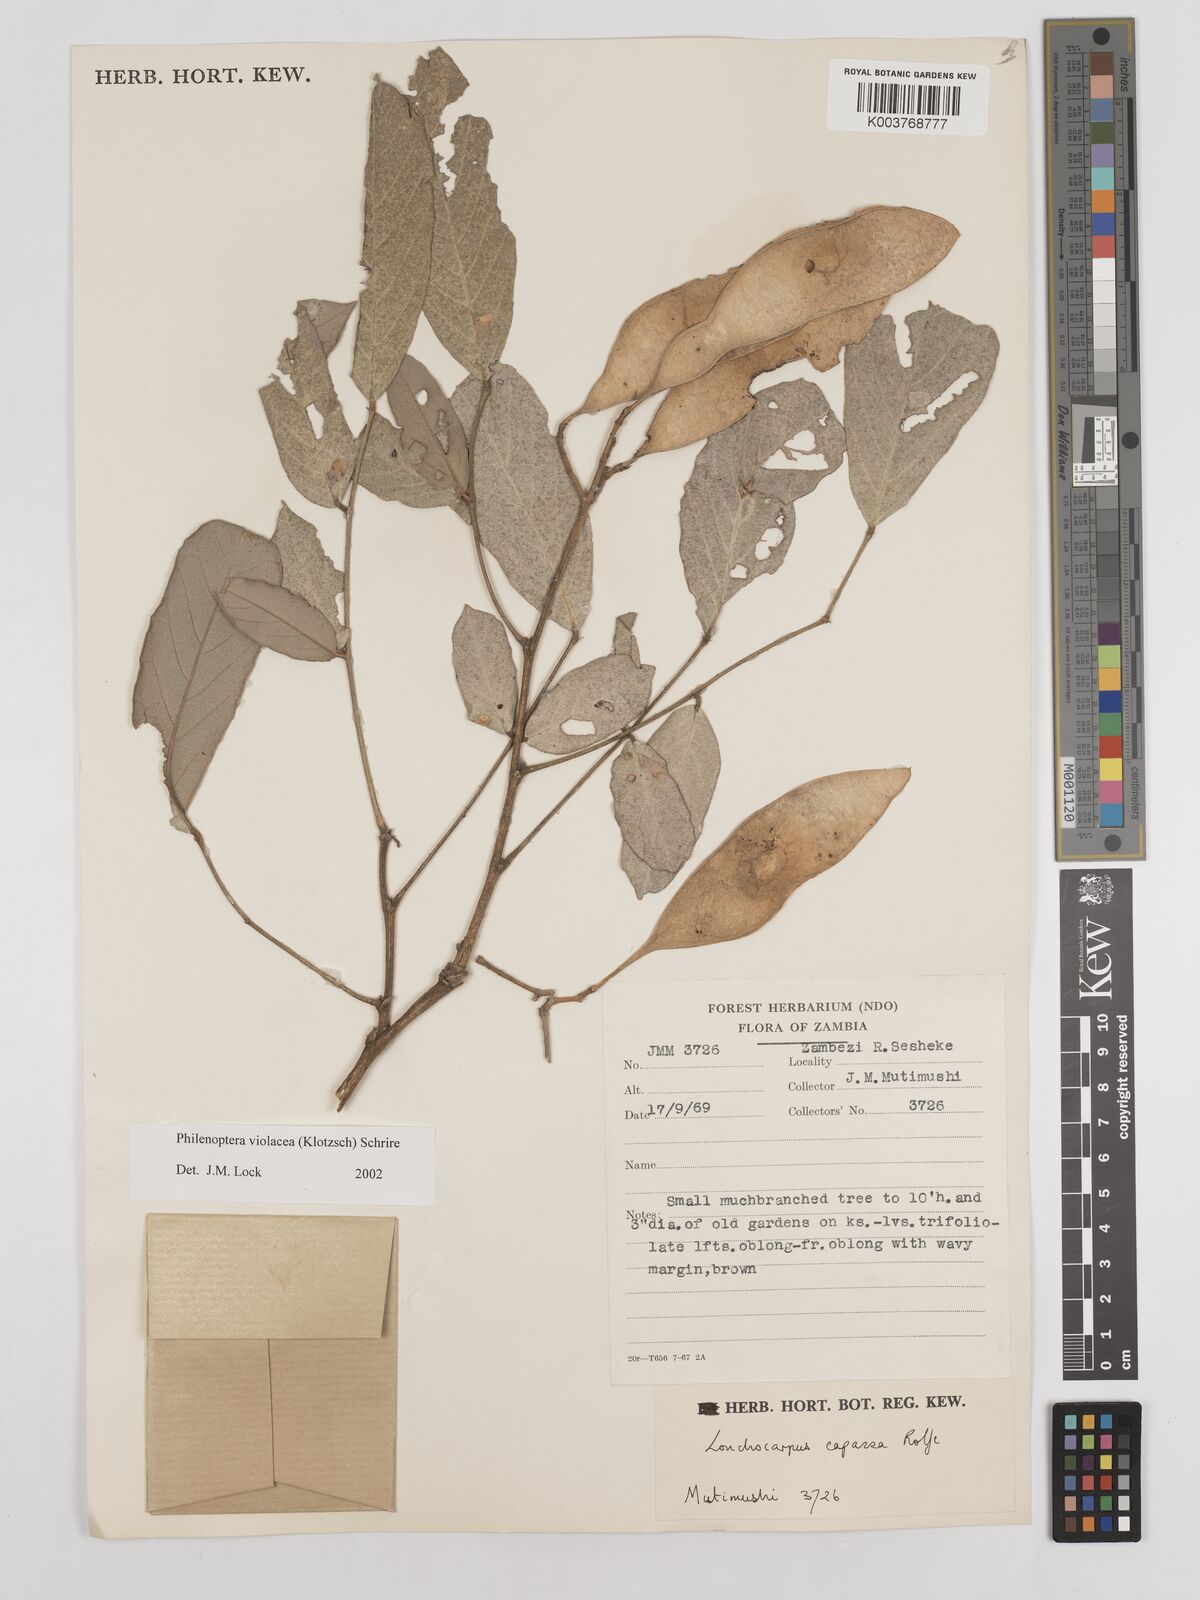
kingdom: Plantae
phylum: Tracheophyta
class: Magnoliopsida
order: Fabales
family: Fabaceae
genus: Philenoptera
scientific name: Philenoptera violacea
